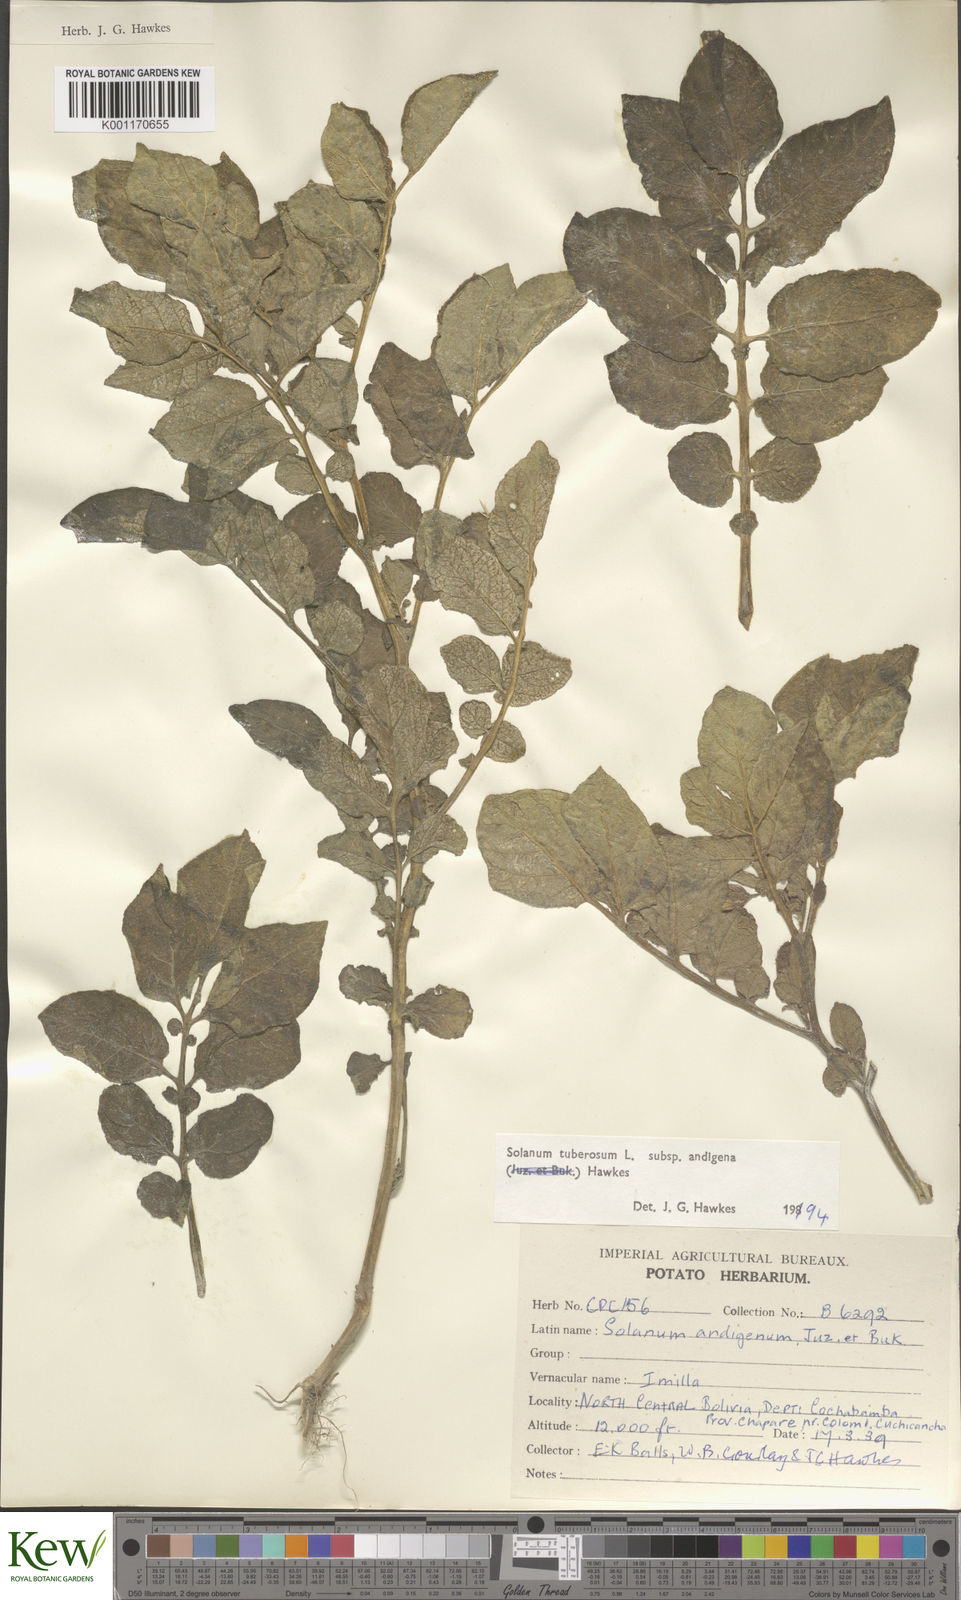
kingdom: Plantae
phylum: Tracheophyta
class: Magnoliopsida
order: Solanales
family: Solanaceae
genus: Solanum
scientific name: Solanum tuberosum
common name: Potato
